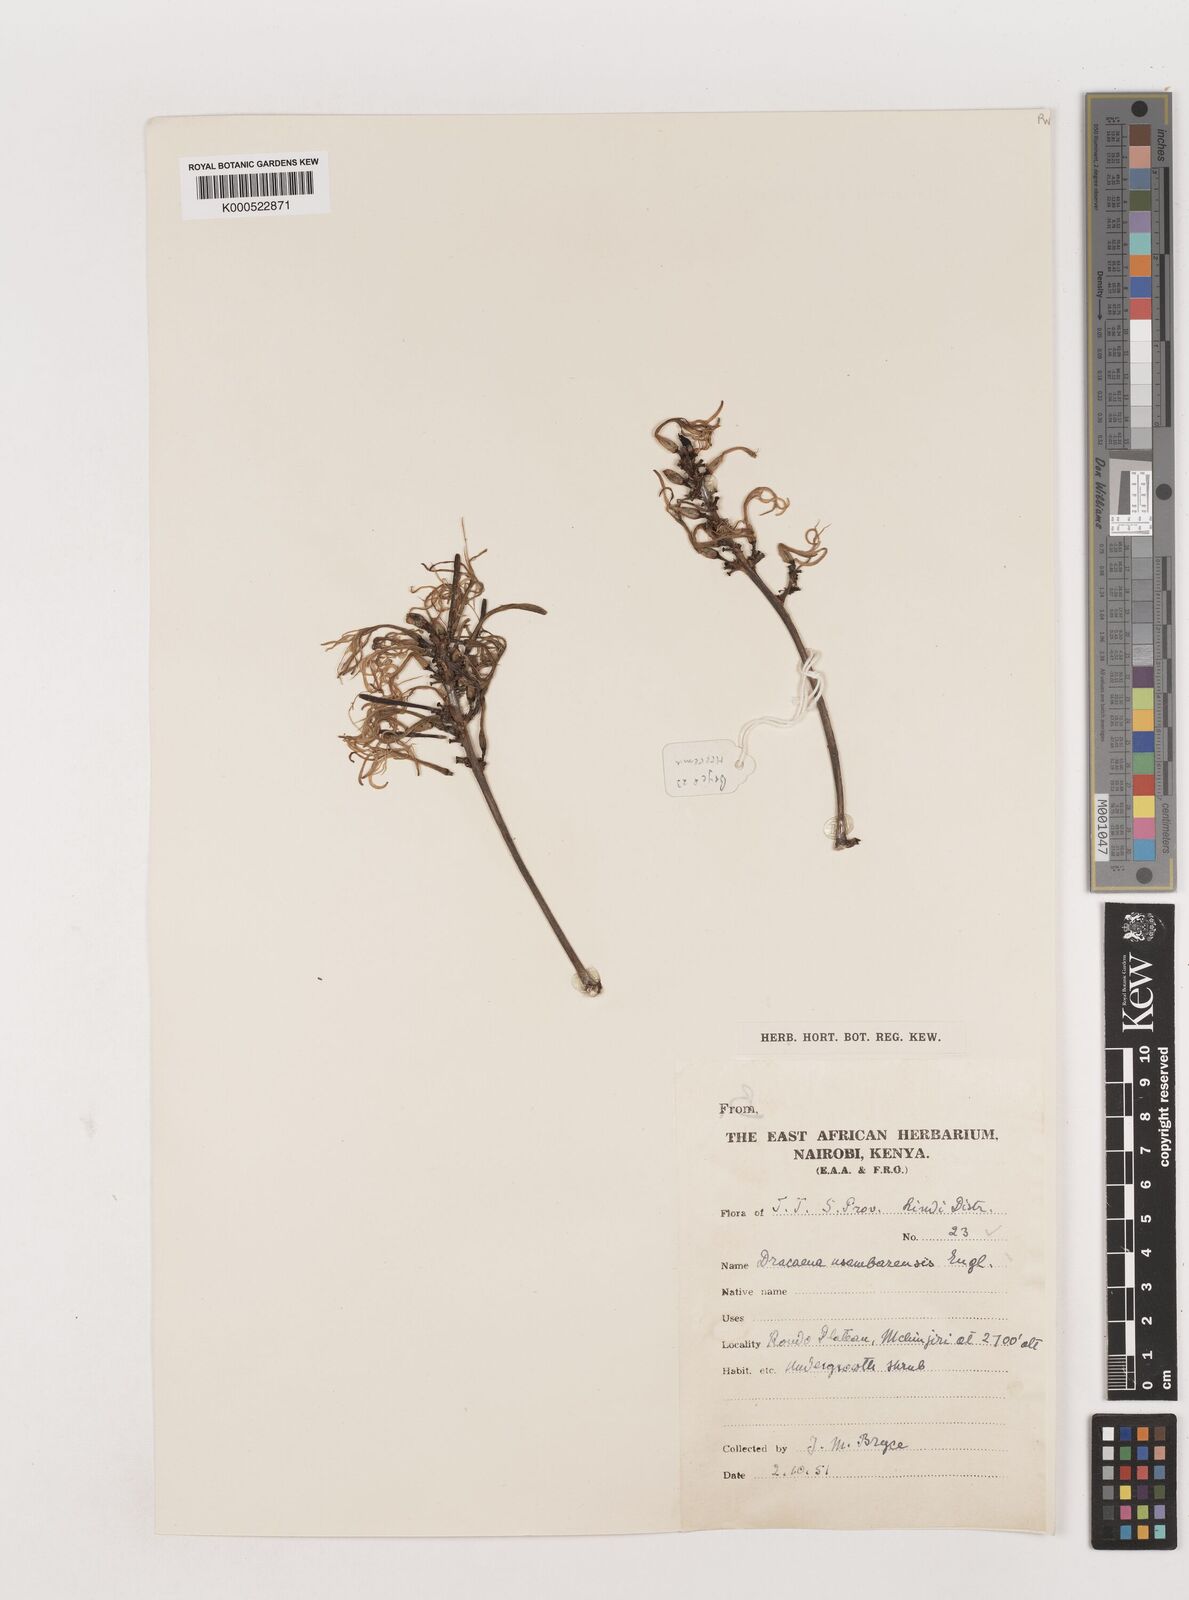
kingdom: Plantae
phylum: Tracheophyta
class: Liliopsida
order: Asparagales
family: Asparagaceae
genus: Dracaena
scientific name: Dracaena usambarensis
